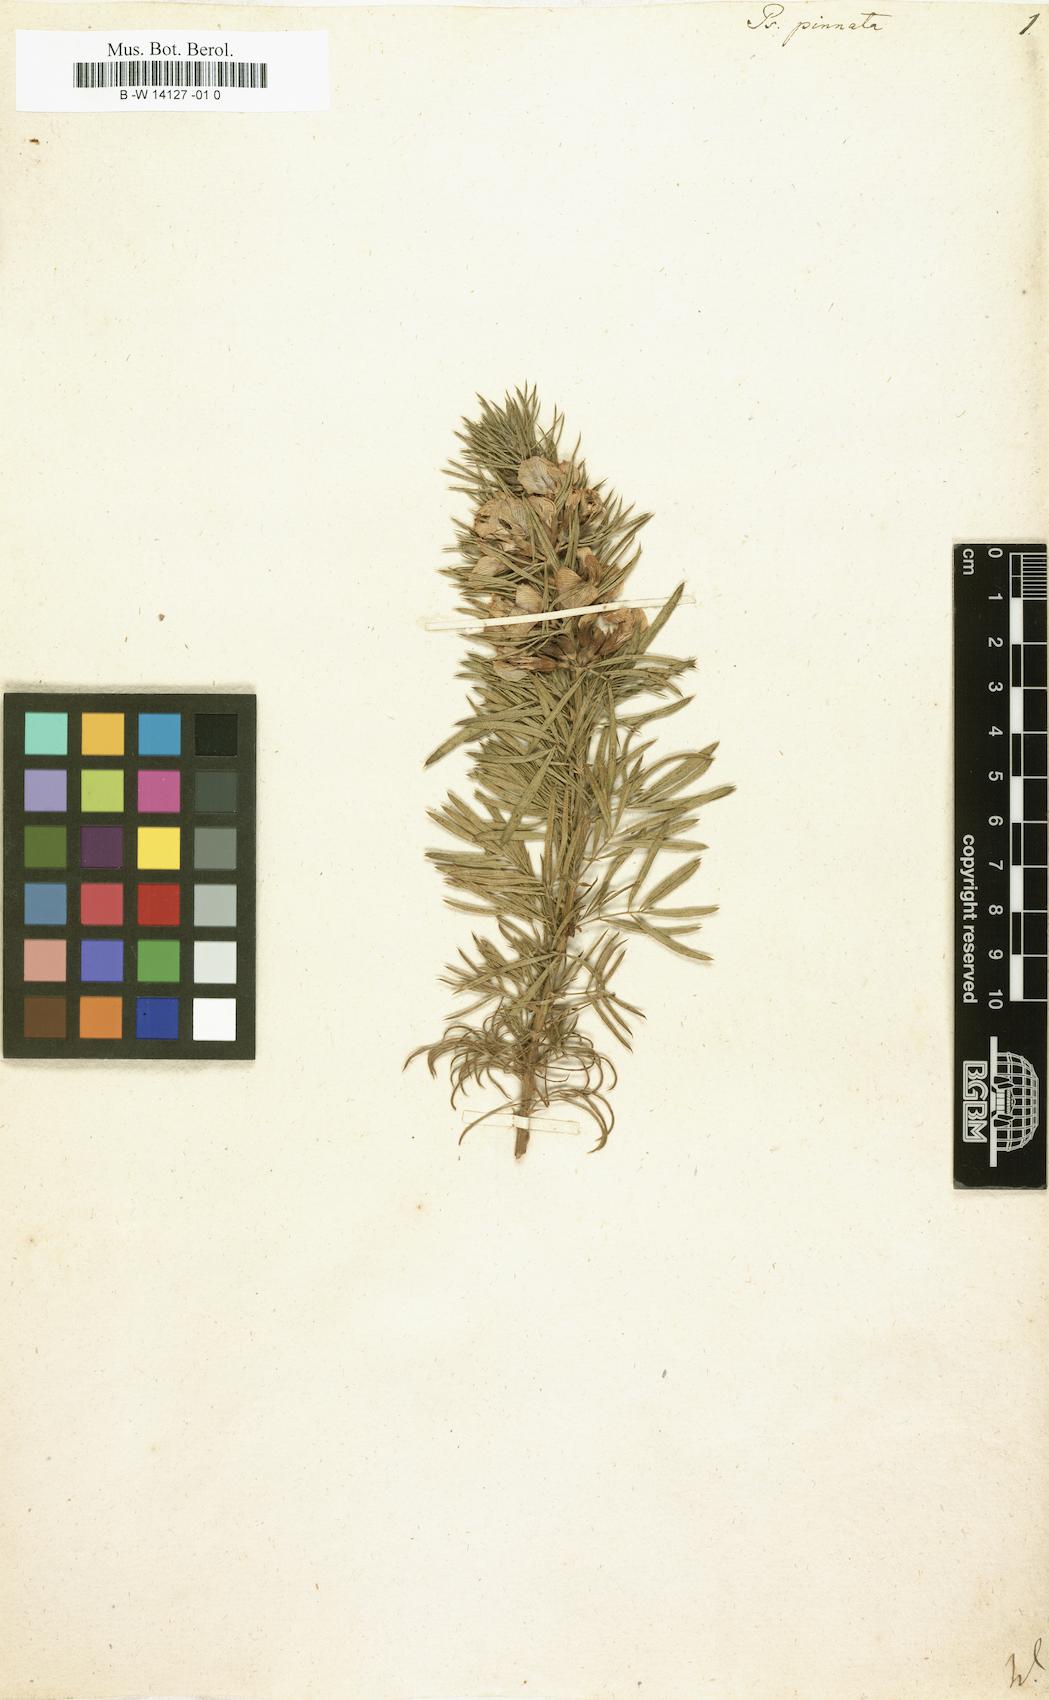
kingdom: Plantae
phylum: Tracheophyta
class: Magnoliopsida
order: Fabales
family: Fabaceae
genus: Psoralea
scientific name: Psoralea pinnata
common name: African scurfpea
